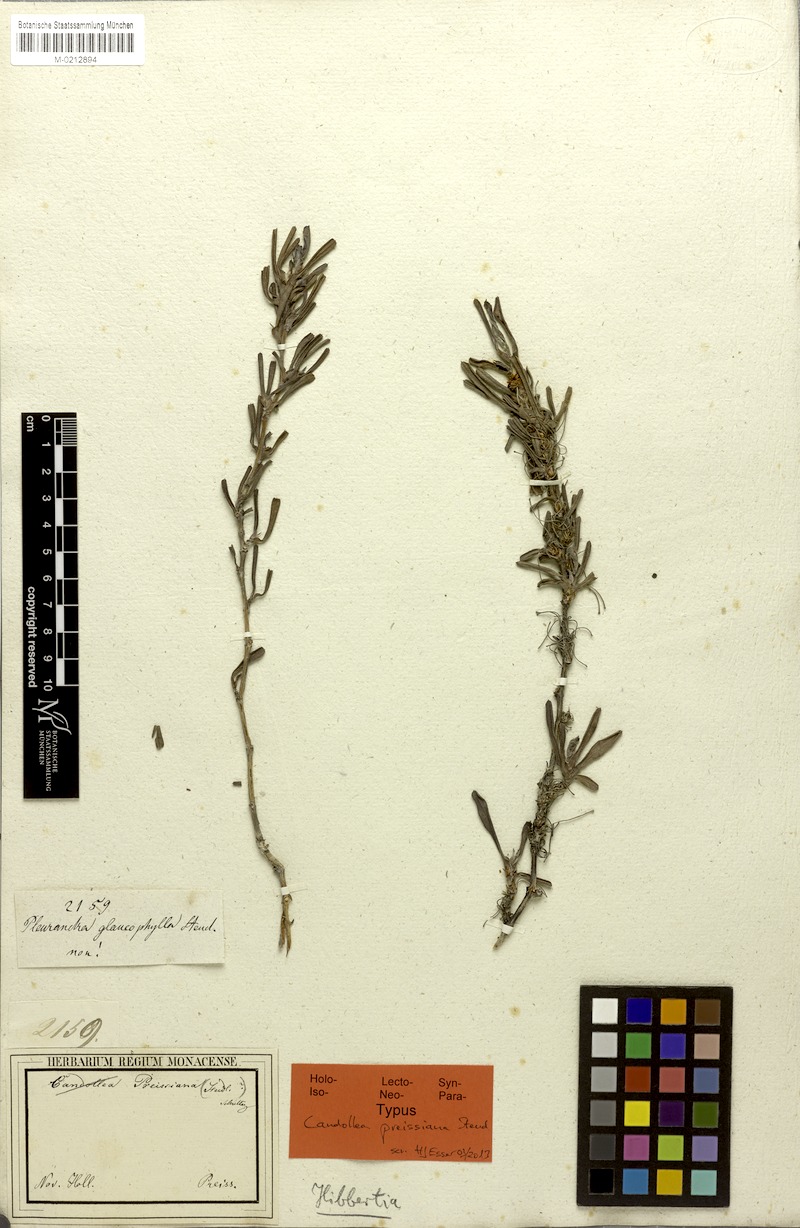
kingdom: Plantae
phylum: Tracheophyta
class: Magnoliopsida
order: Dilleniales
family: Dilleniaceae
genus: Hibbertia
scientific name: Hibbertia preissiana
